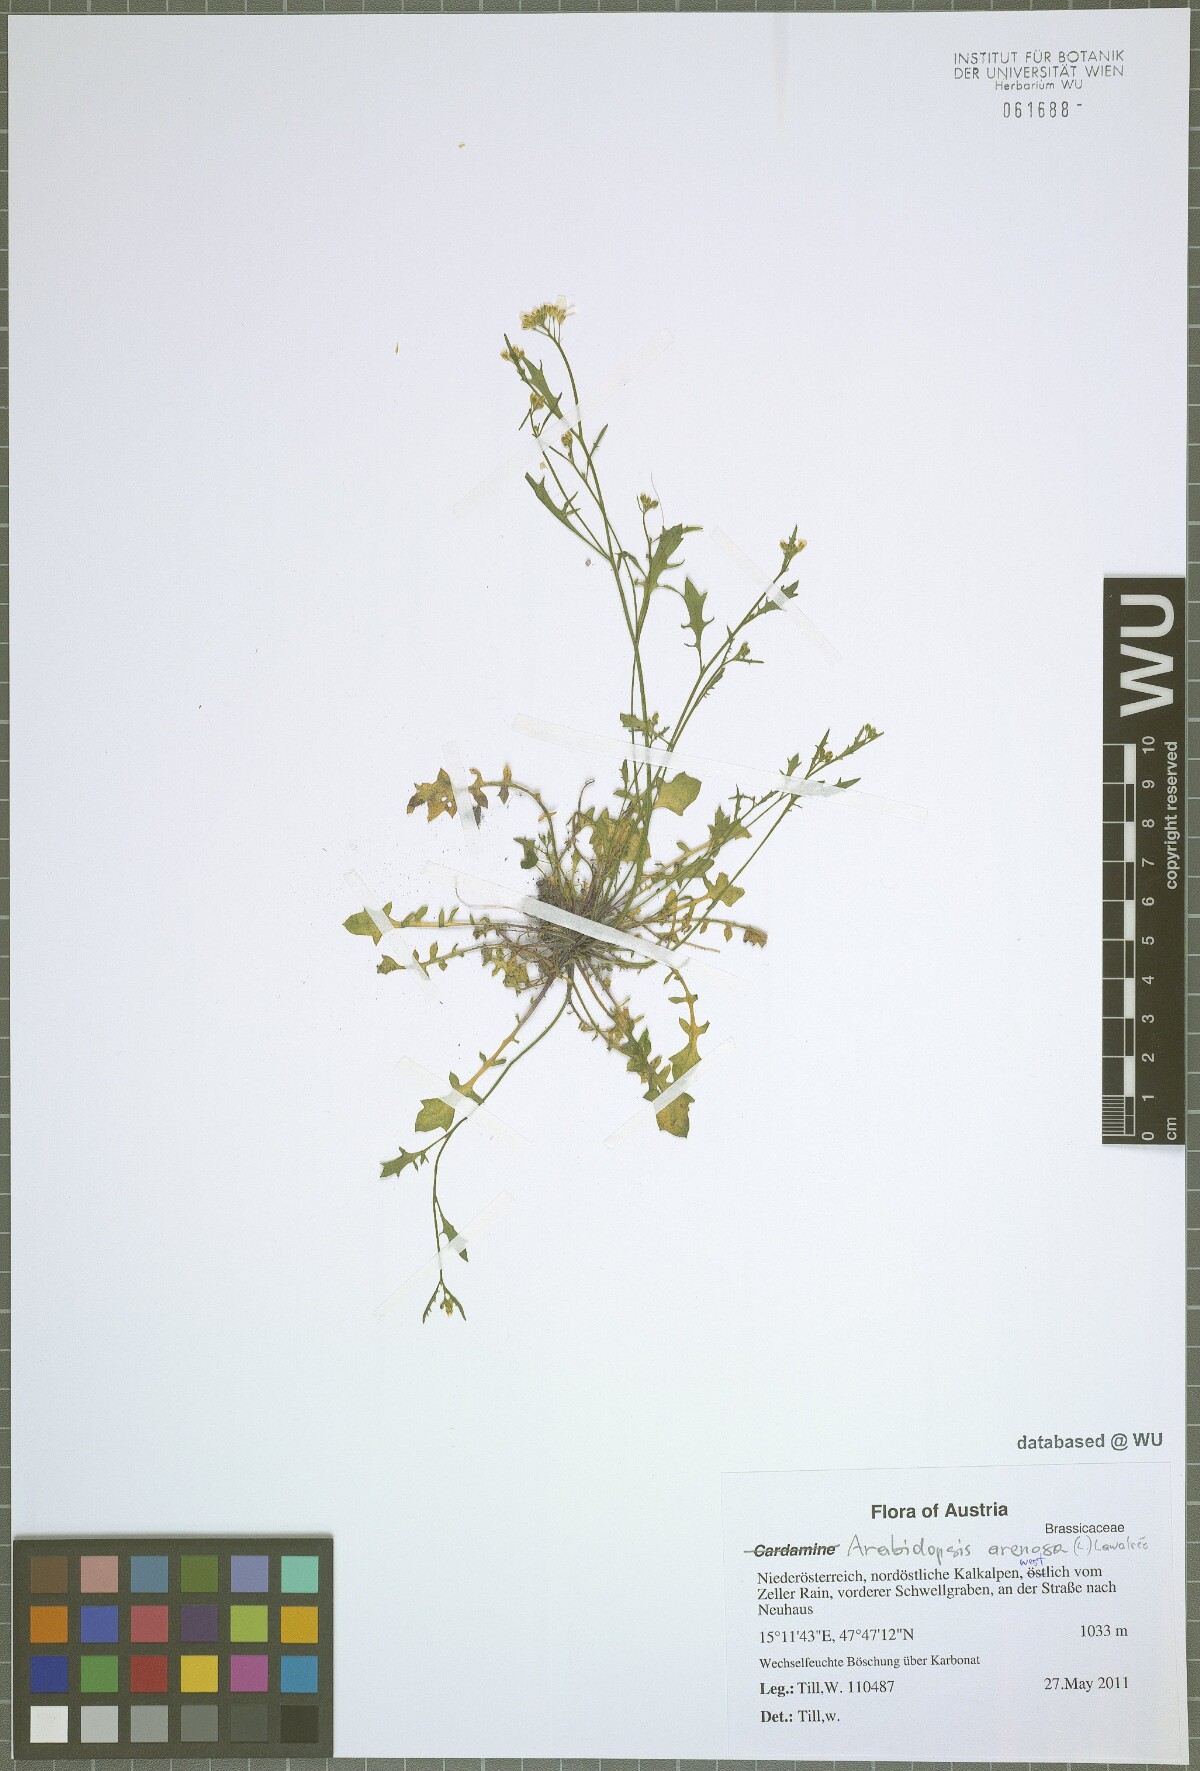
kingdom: Plantae
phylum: Tracheophyta
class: Magnoliopsida
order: Brassicales
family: Brassicaceae
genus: Arabidopsis
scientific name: Arabidopsis arenosa
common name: Sand rock-cress
